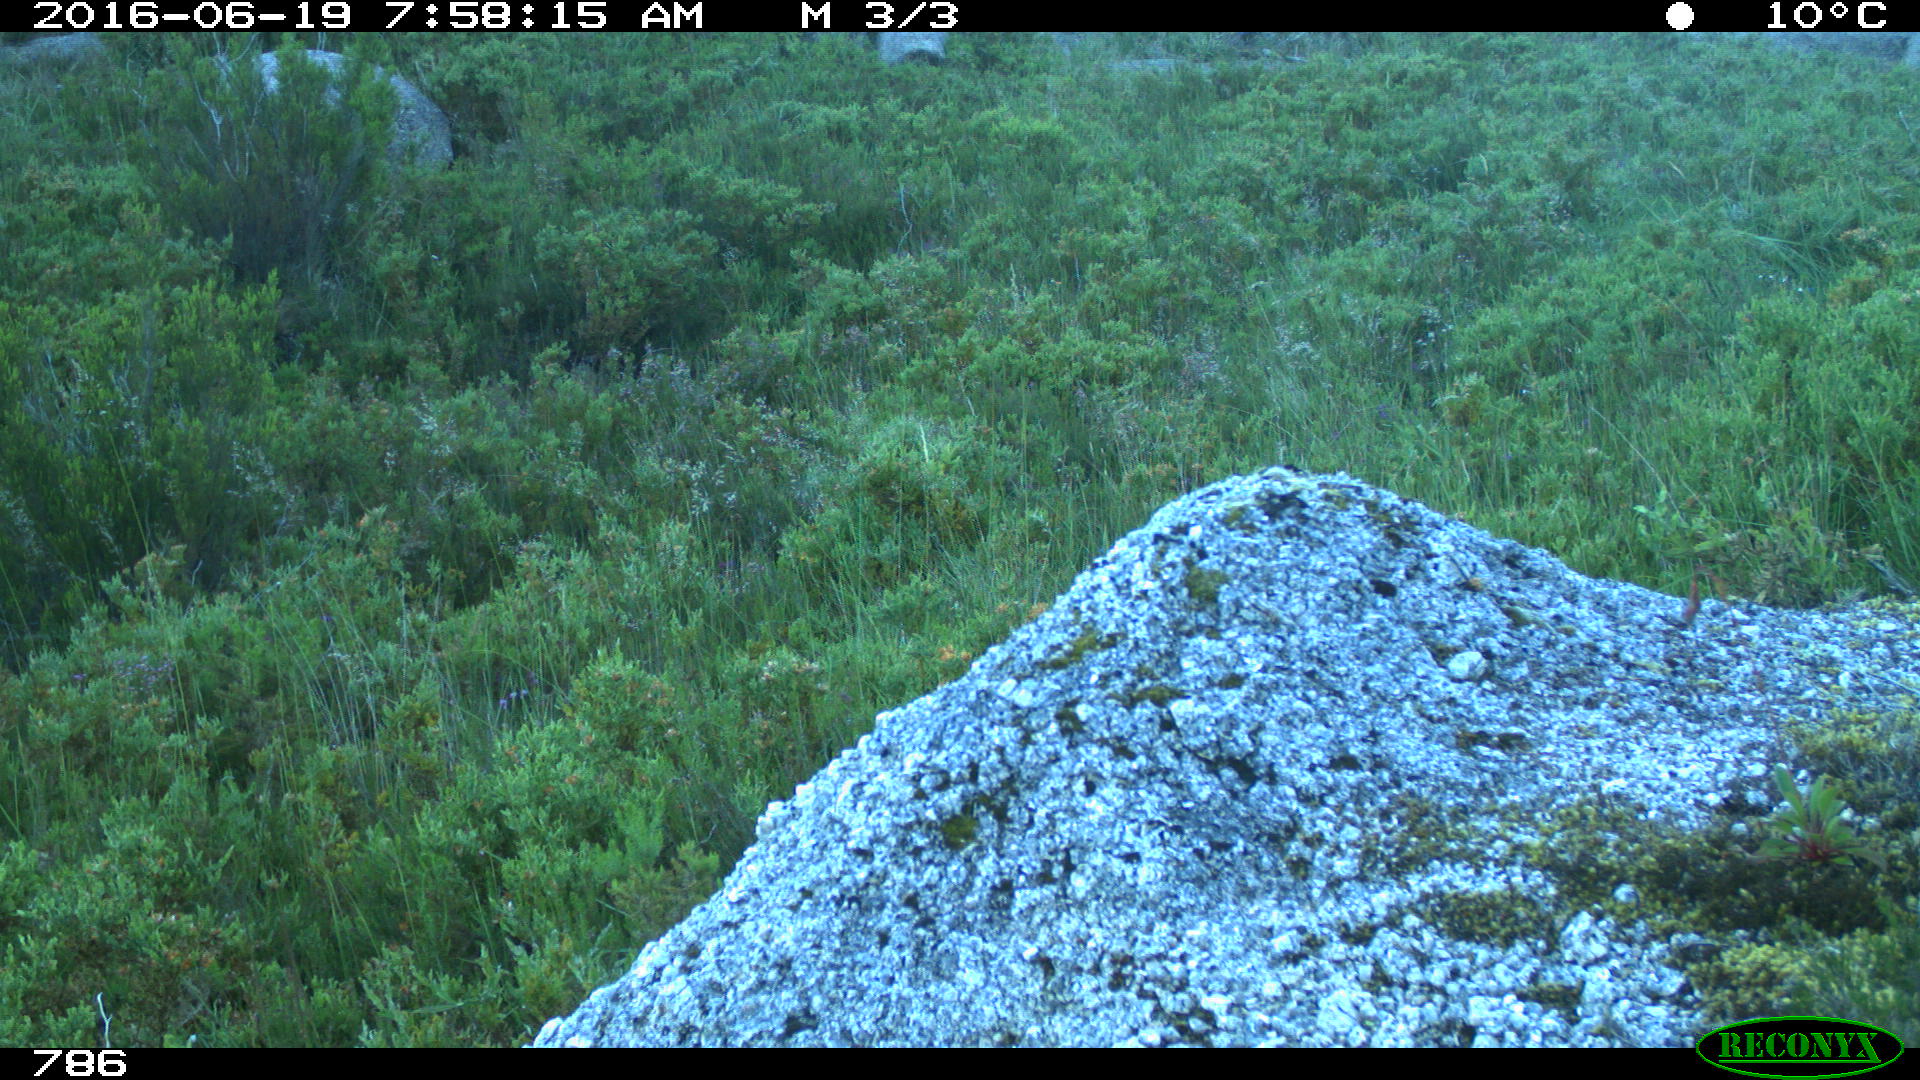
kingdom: Animalia
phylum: Chordata
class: Mammalia
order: Artiodactyla
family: Cervidae
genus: Capreolus
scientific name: Capreolus capreolus
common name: Western roe deer
